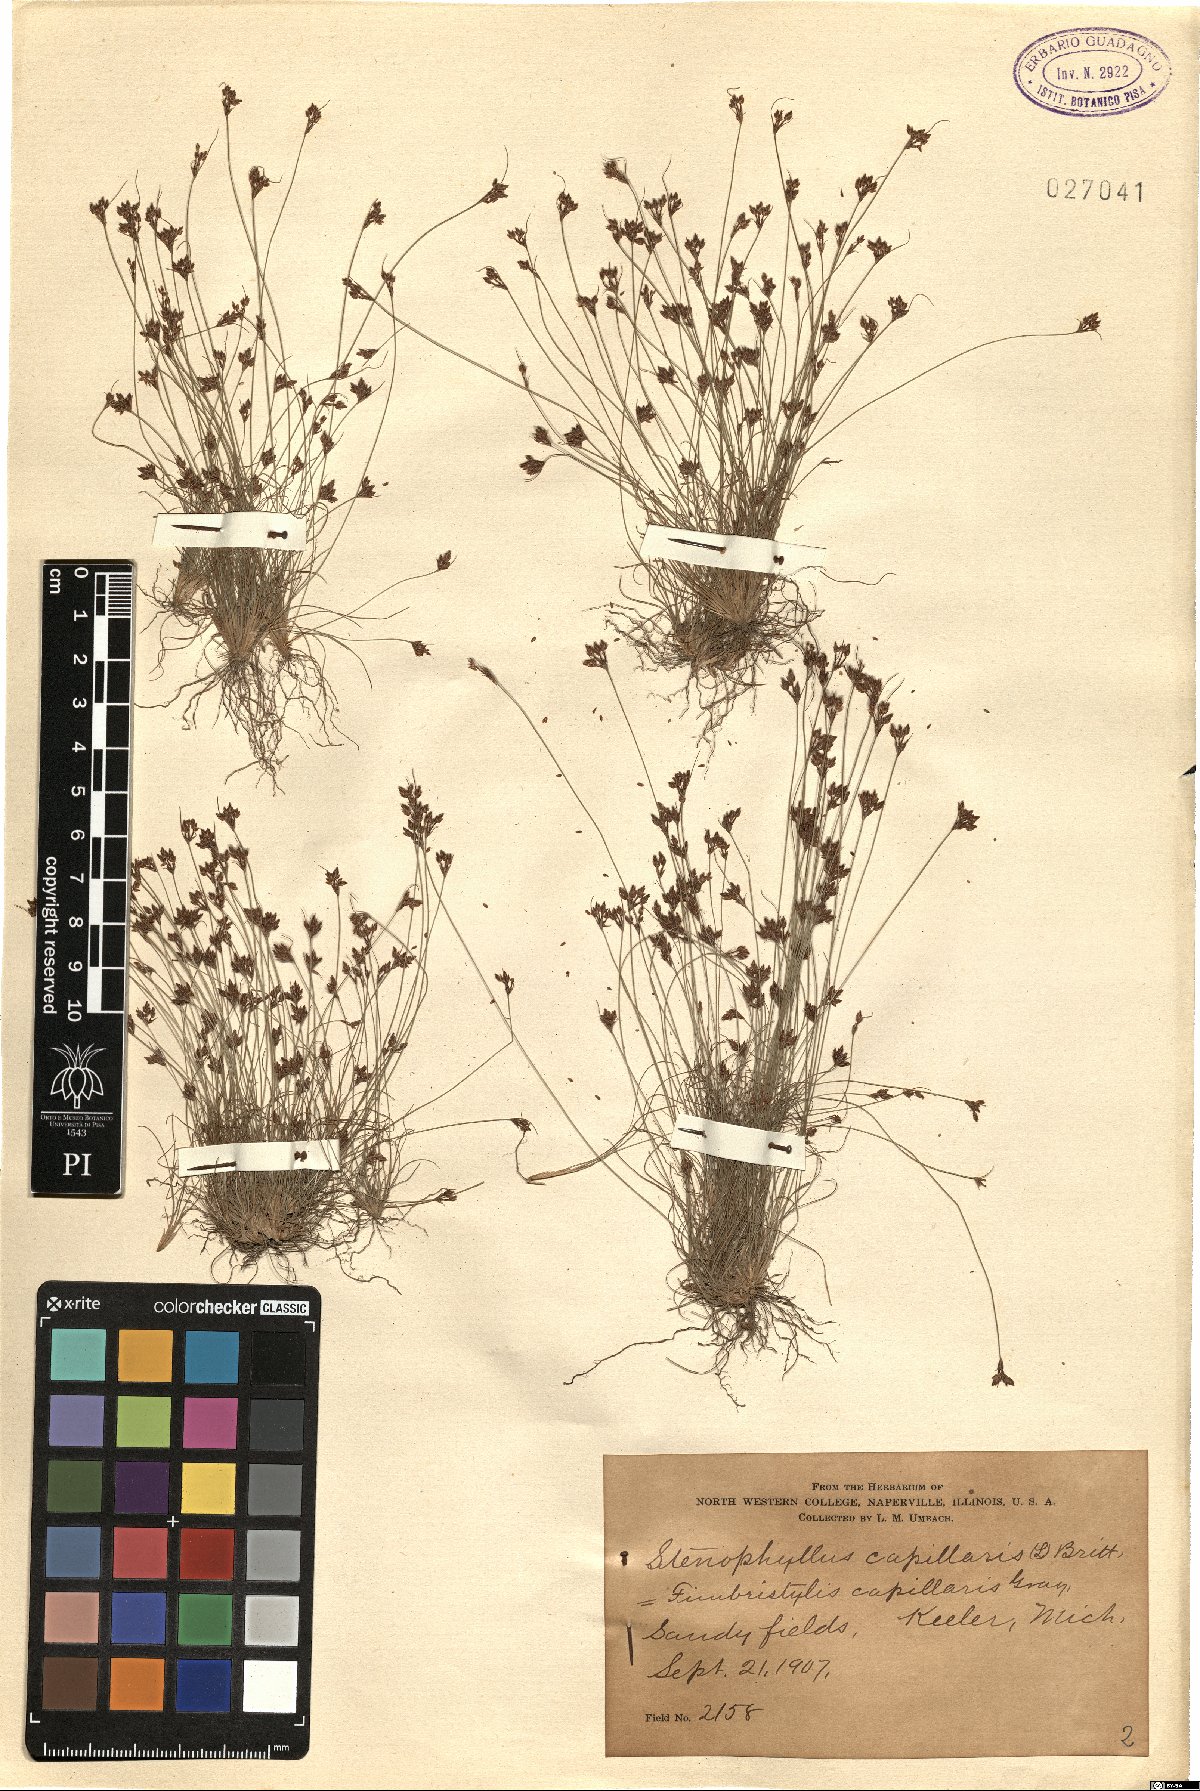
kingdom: Plantae
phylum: Tracheophyta
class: Liliopsida
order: Poales
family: Cyperaceae
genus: Bulbostylis
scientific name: Bulbostylis capillaris
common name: Densetuft hairsedge
